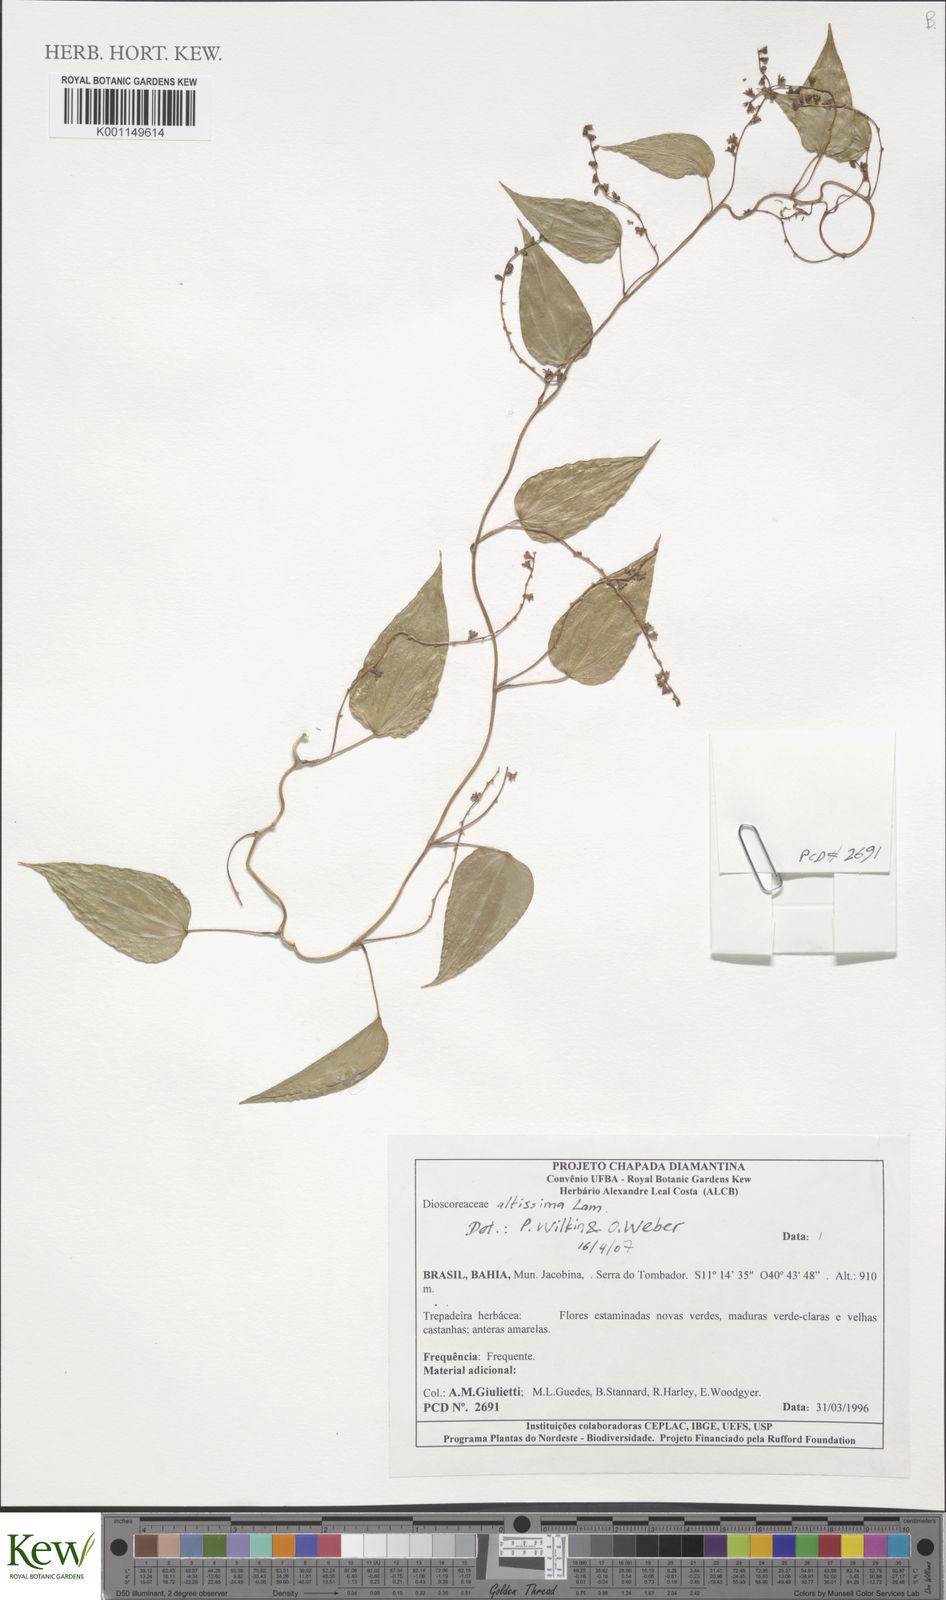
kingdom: Plantae
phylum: Tracheophyta
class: Liliopsida
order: Dioscoreales
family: Dioscoreaceae
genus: Dioscorea
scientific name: Dioscorea chondrocarpa
